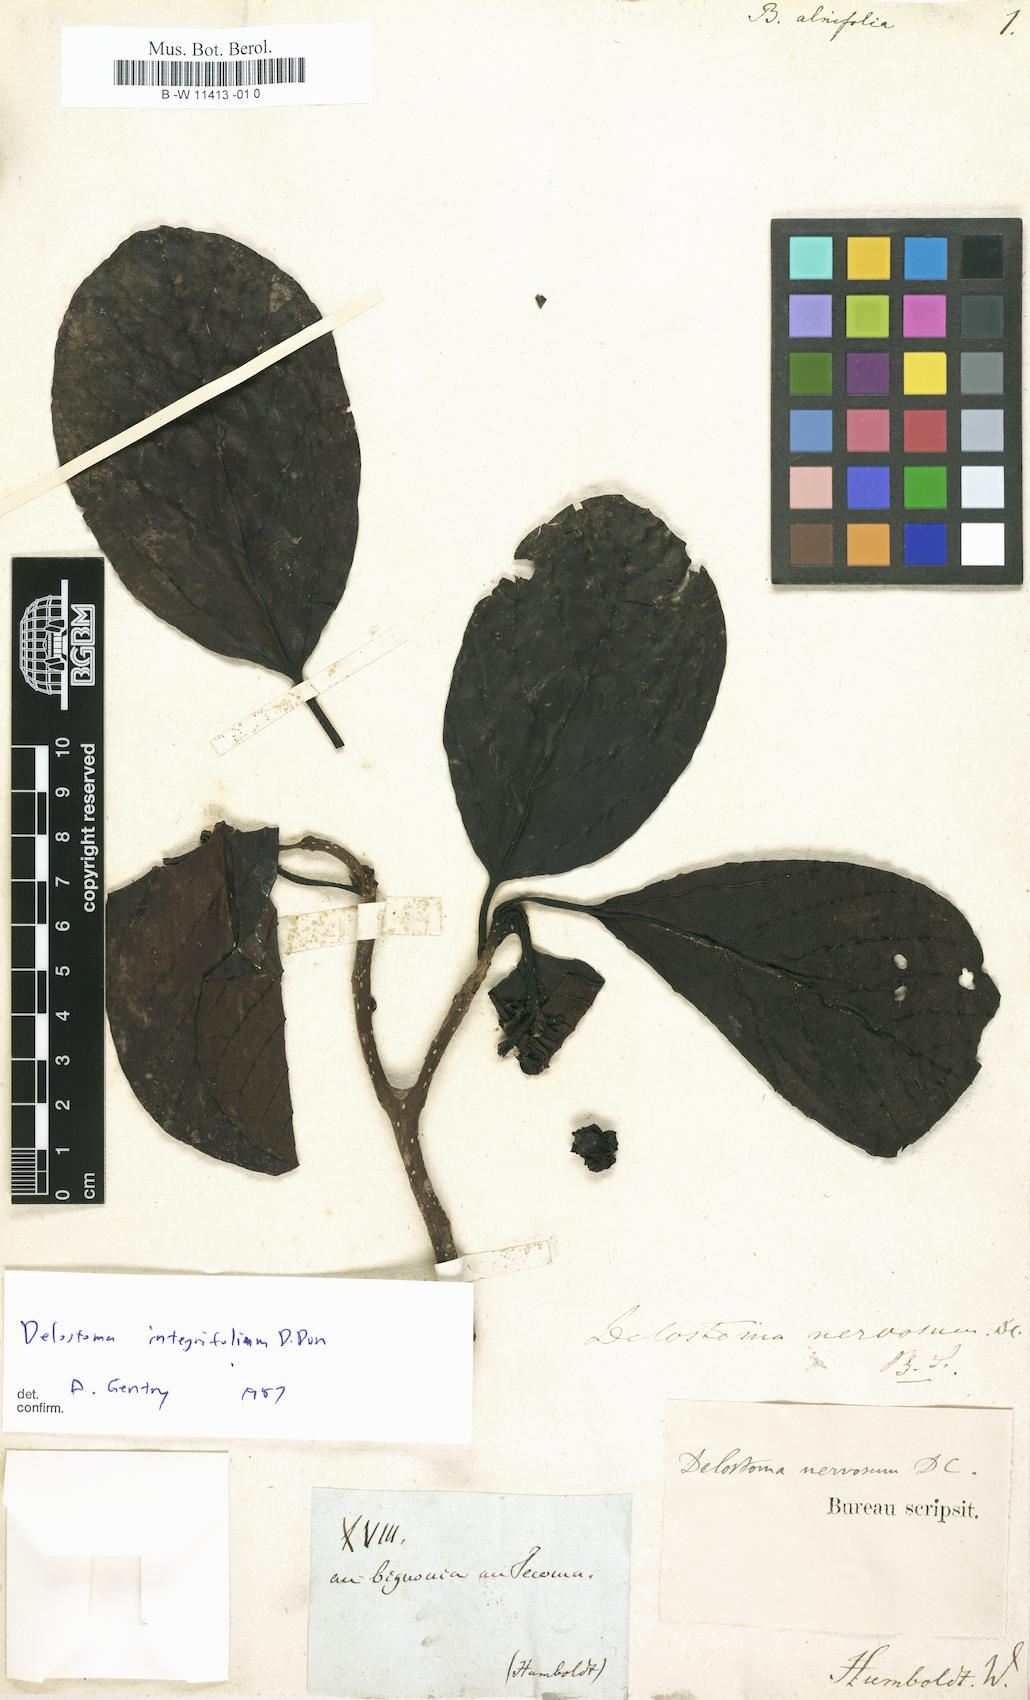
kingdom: Plantae
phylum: Tracheophyta
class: Magnoliopsida
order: Lamiales
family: Bignoniaceae
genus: Bignonia
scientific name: Bignonia
